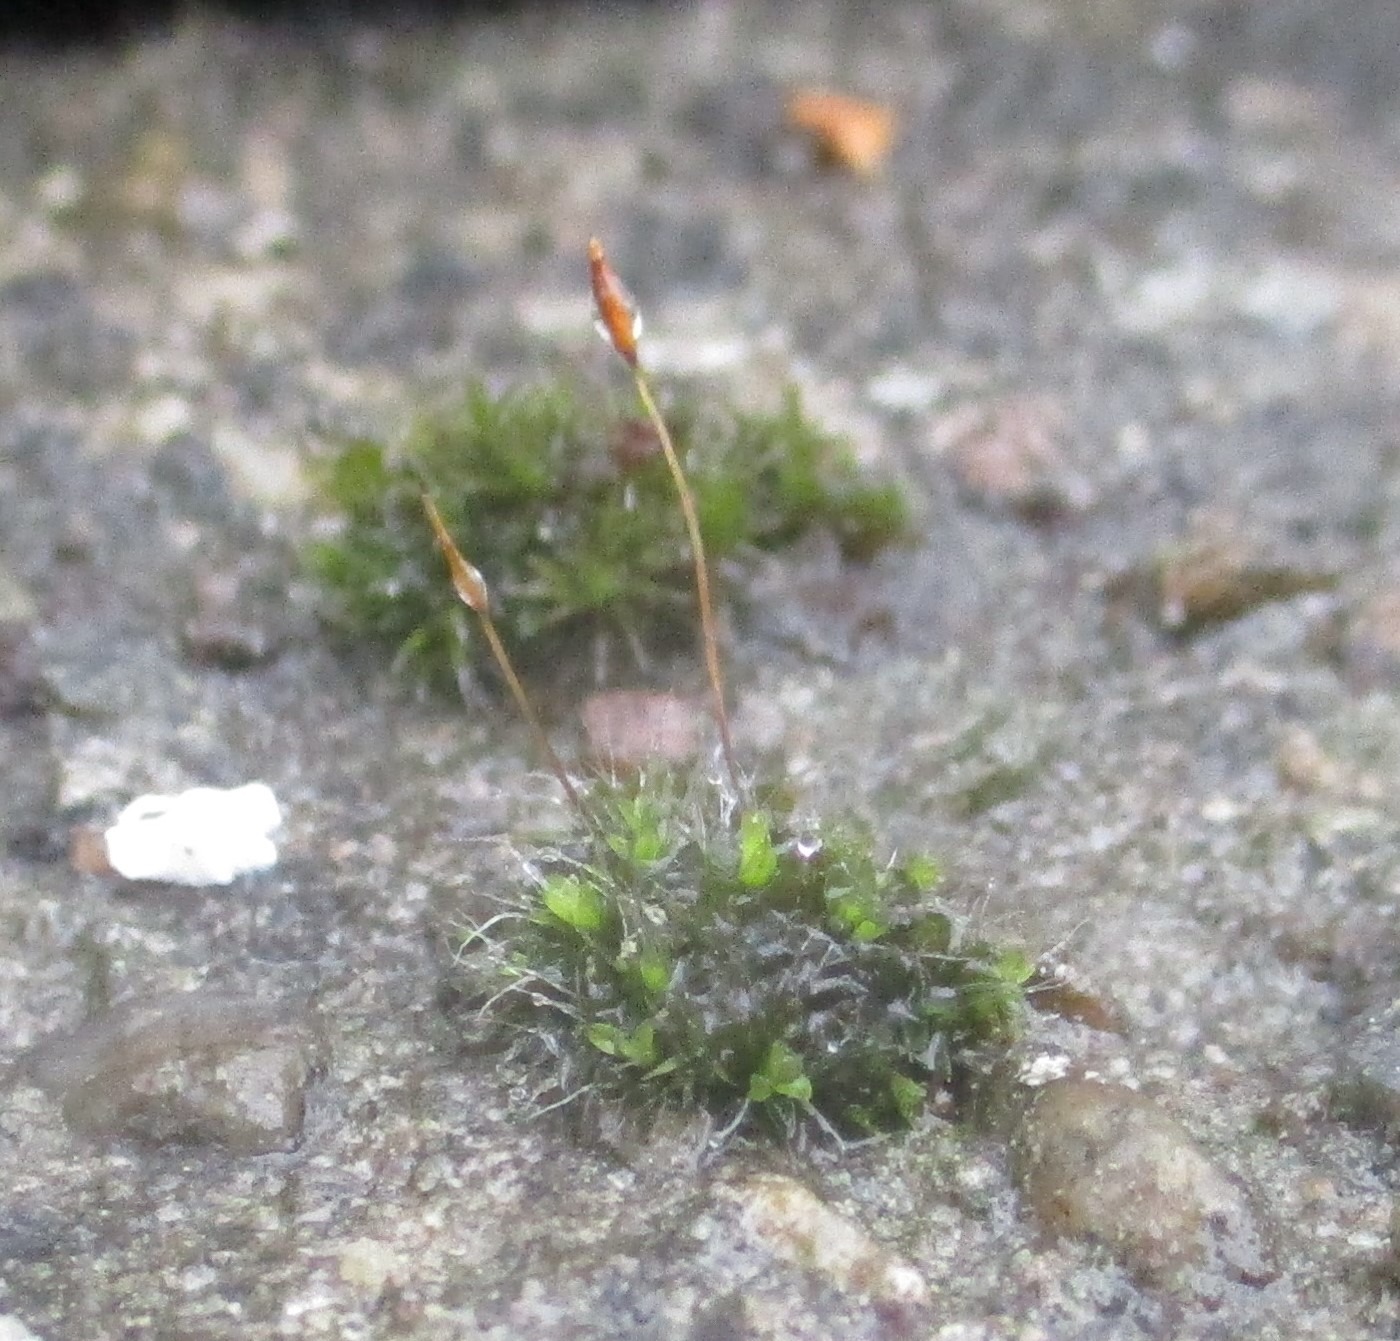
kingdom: Plantae
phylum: Bryophyta
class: Bryopsida
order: Pottiales
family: Pottiaceae
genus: Tortula
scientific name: Tortula muralis
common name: Mur-snotand
